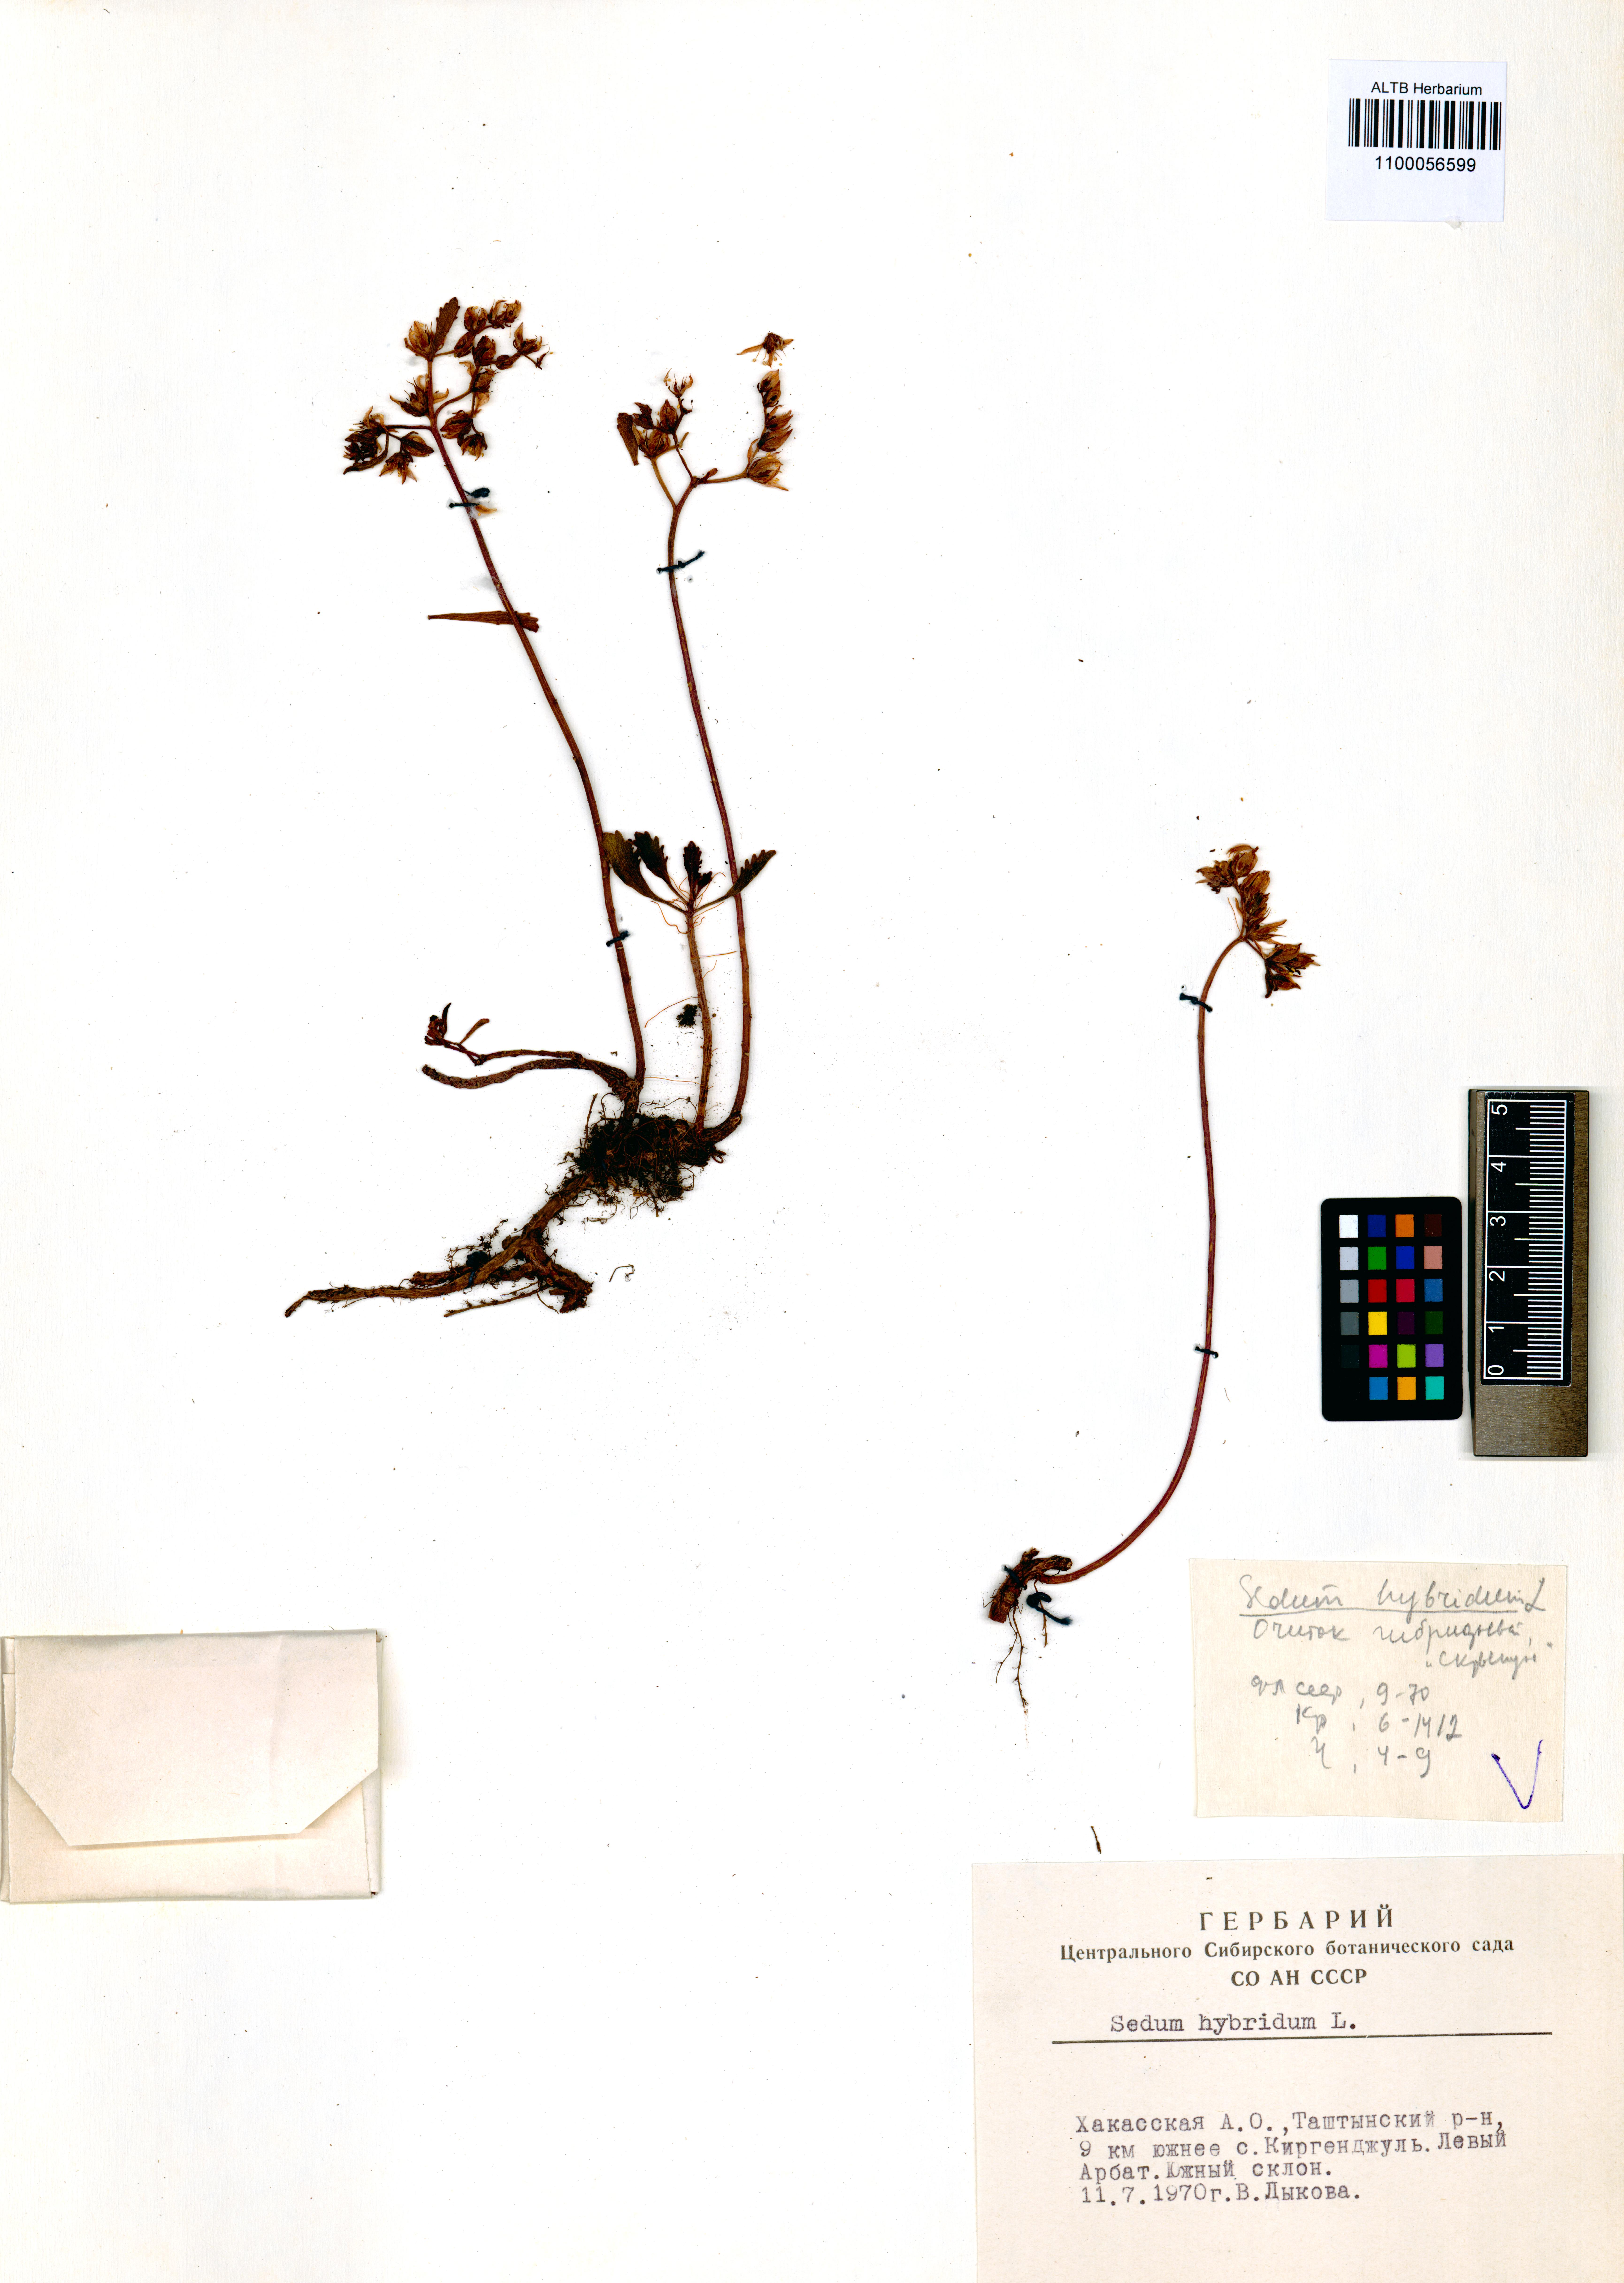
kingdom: Plantae
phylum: Tracheophyta
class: Magnoliopsida
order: Saxifragales
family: Crassulaceae
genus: Phedimus
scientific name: Phedimus hybridus
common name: Hybrid stonecrop
